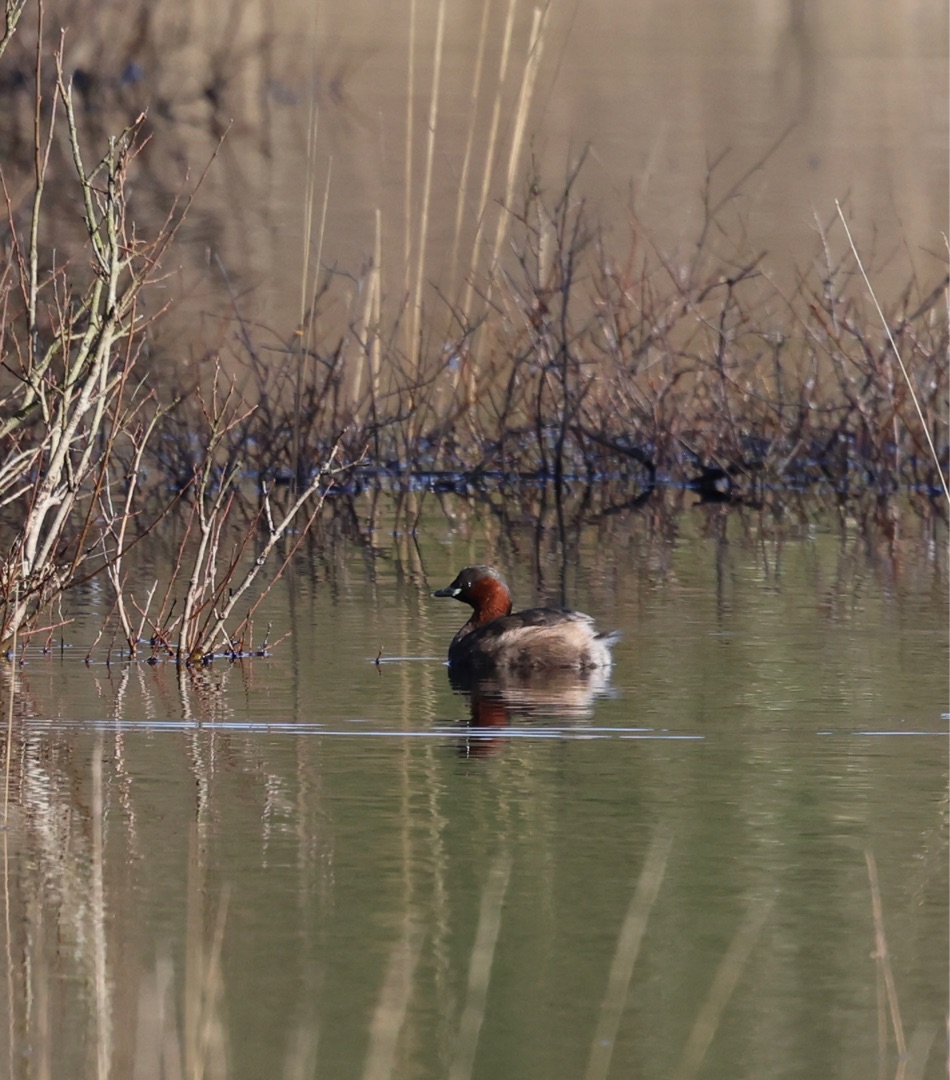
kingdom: Animalia
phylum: Chordata
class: Aves
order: Podicipediformes
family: Podicipedidae
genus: Tachybaptus
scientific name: Tachybaptus ruficollis
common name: Lille lappedykker
